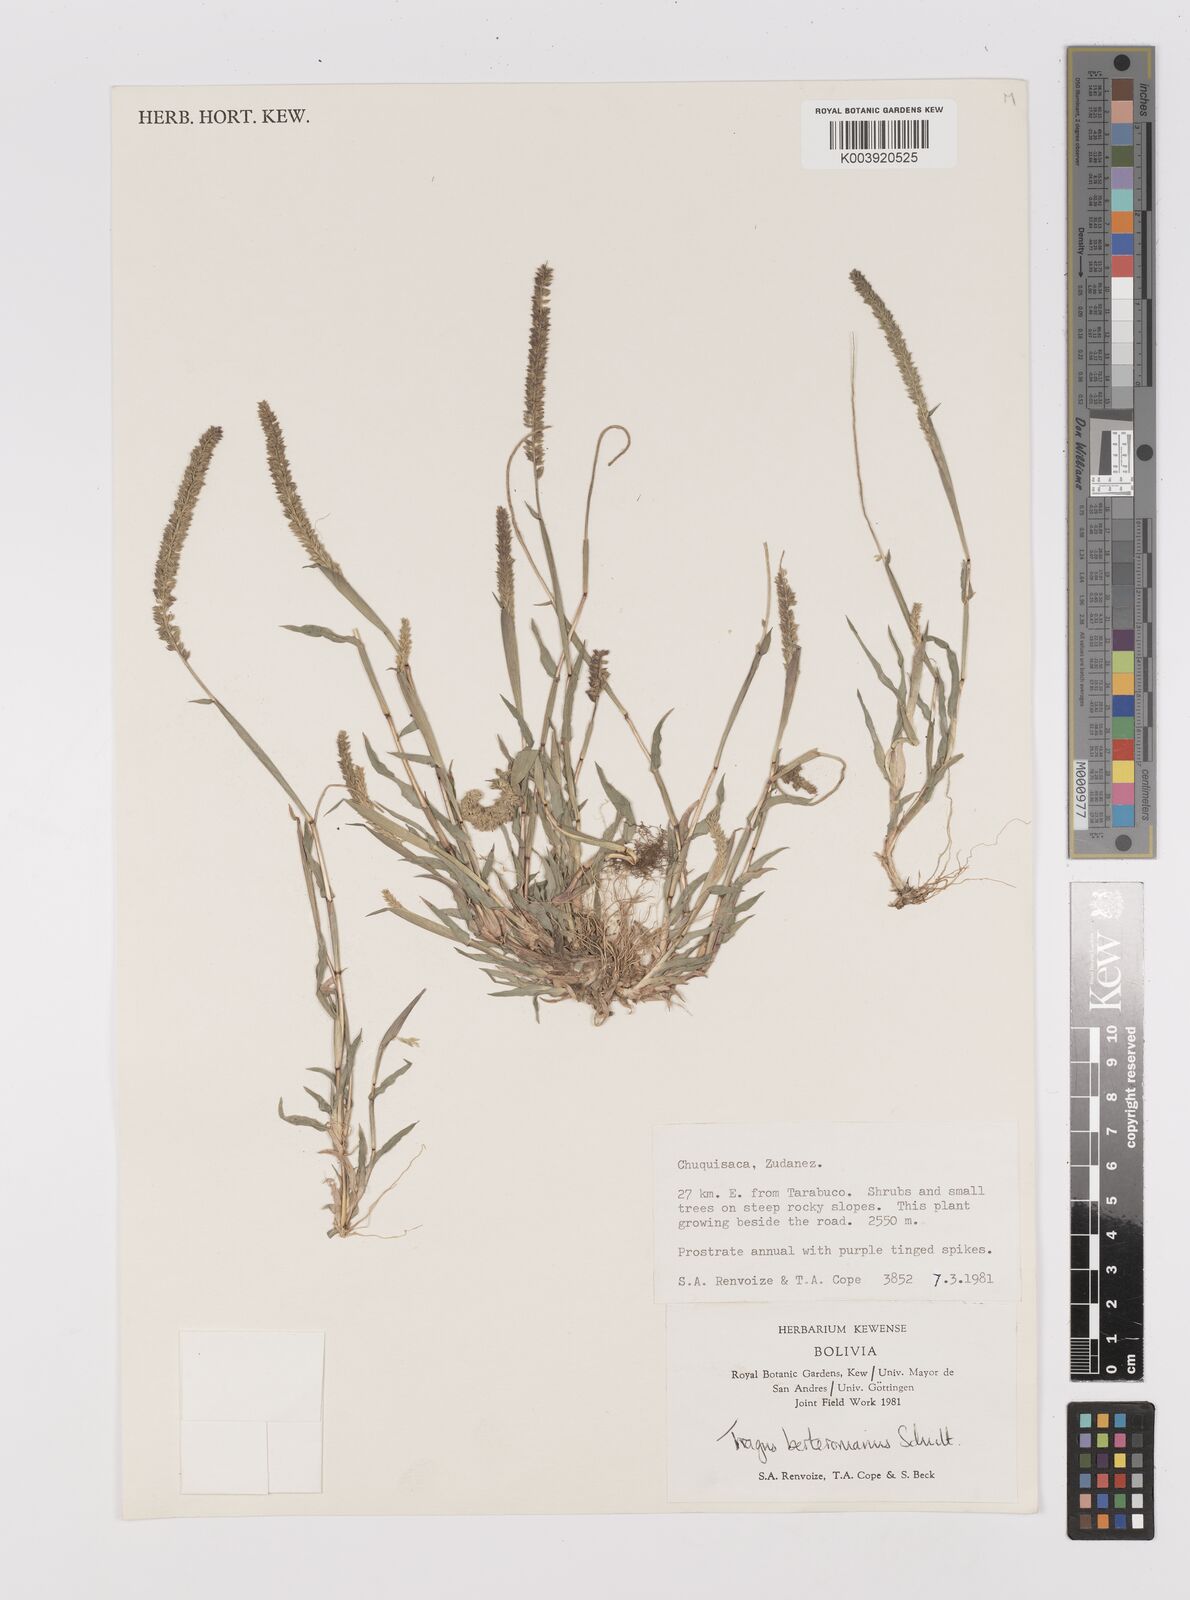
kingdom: Plantae
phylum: Tracheophyta
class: Liliopsida
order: Poales
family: Poaceae
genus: Tragus
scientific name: Tragus berteronianus
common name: African bur-grass
